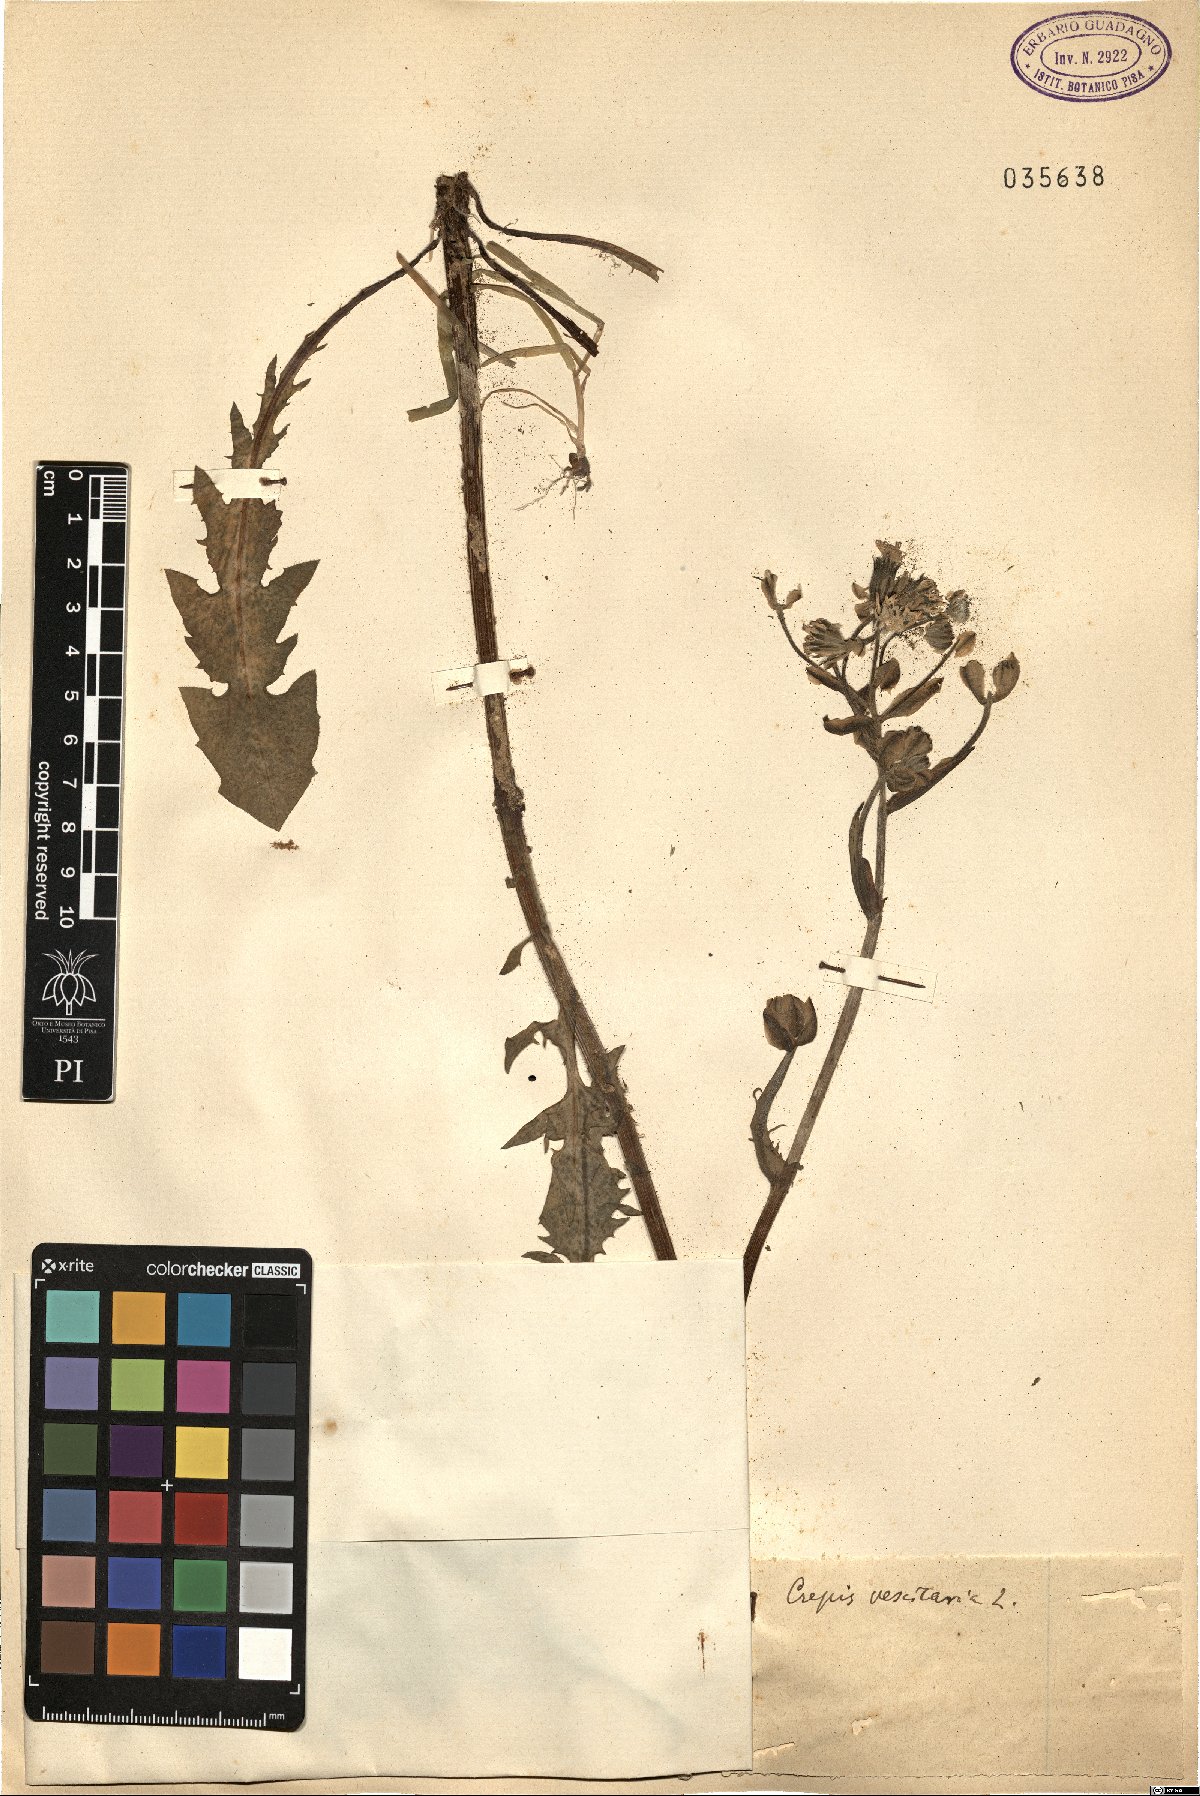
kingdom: Plantae
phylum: Tracheophyta
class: Magnoliopsida
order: Asterales
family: Asteraceae
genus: Crepis
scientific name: Crepis vesicaria
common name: Beaked hawksbeard
